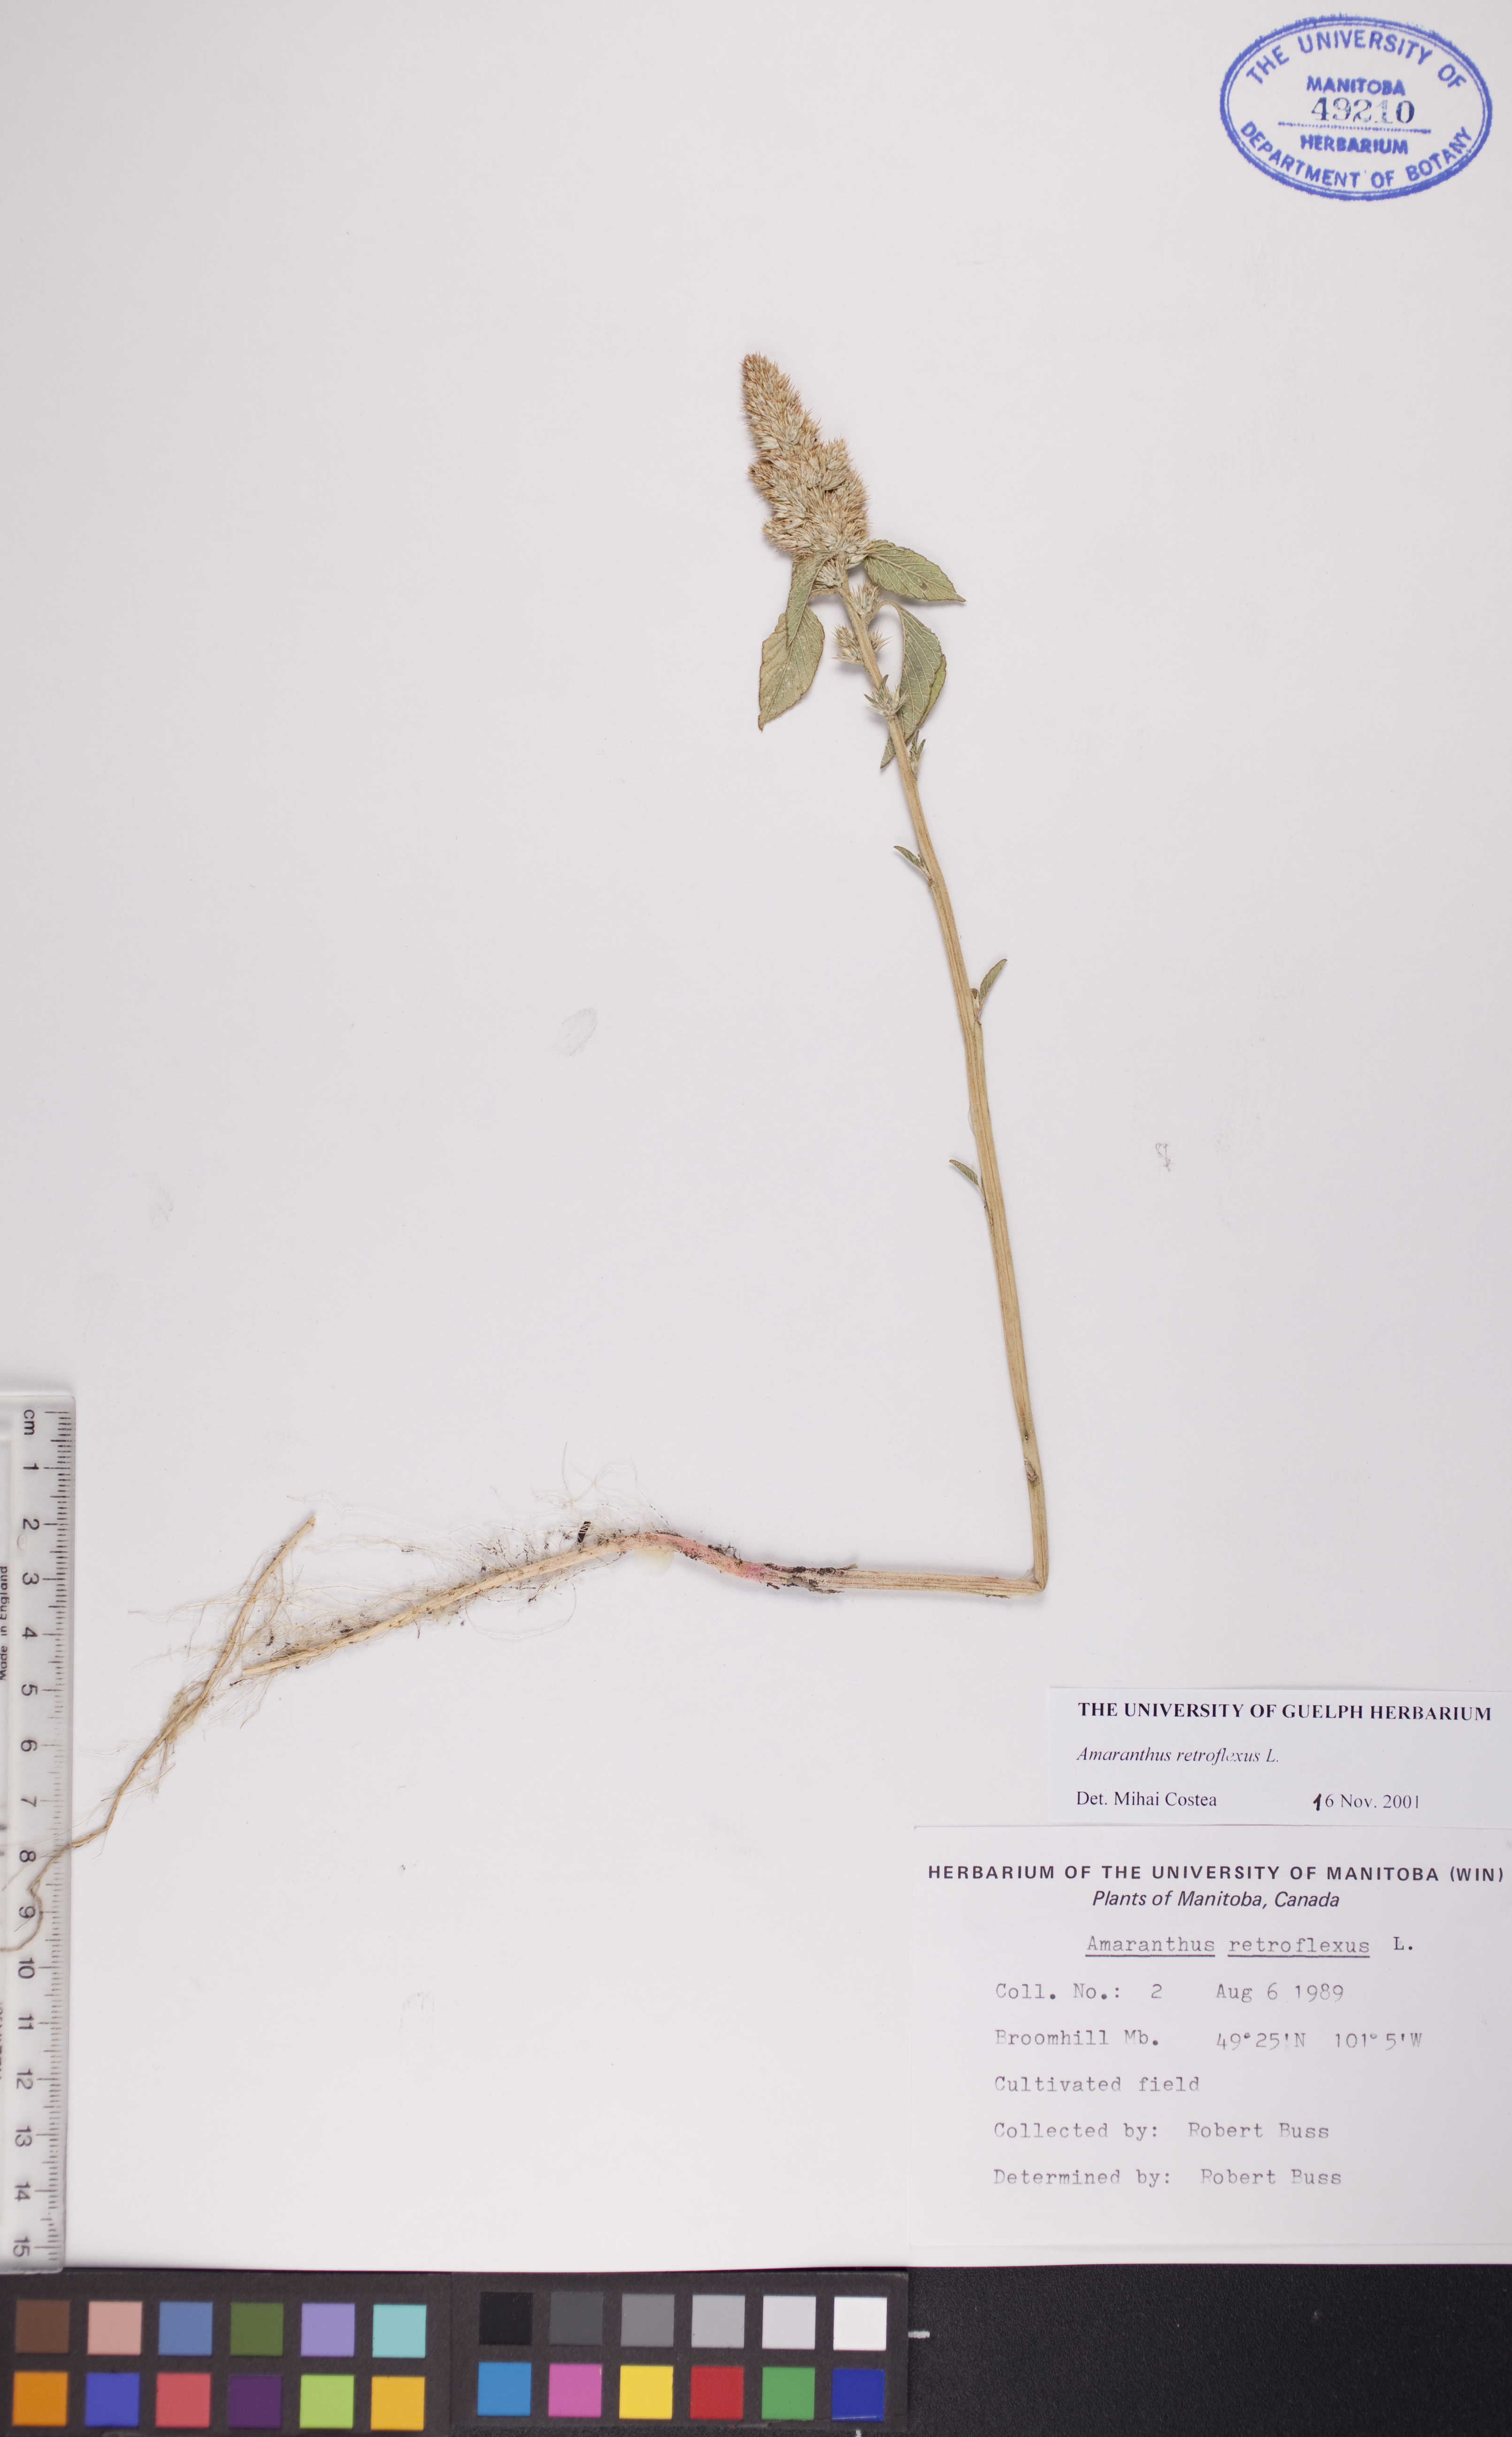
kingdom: Plantae
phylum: Tracheophyta
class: Magnoliopsida
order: Caryophyllales
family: Amaranthaceae
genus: Amaranthus
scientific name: Amaranthus retroflexus
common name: Redroot amaranth
